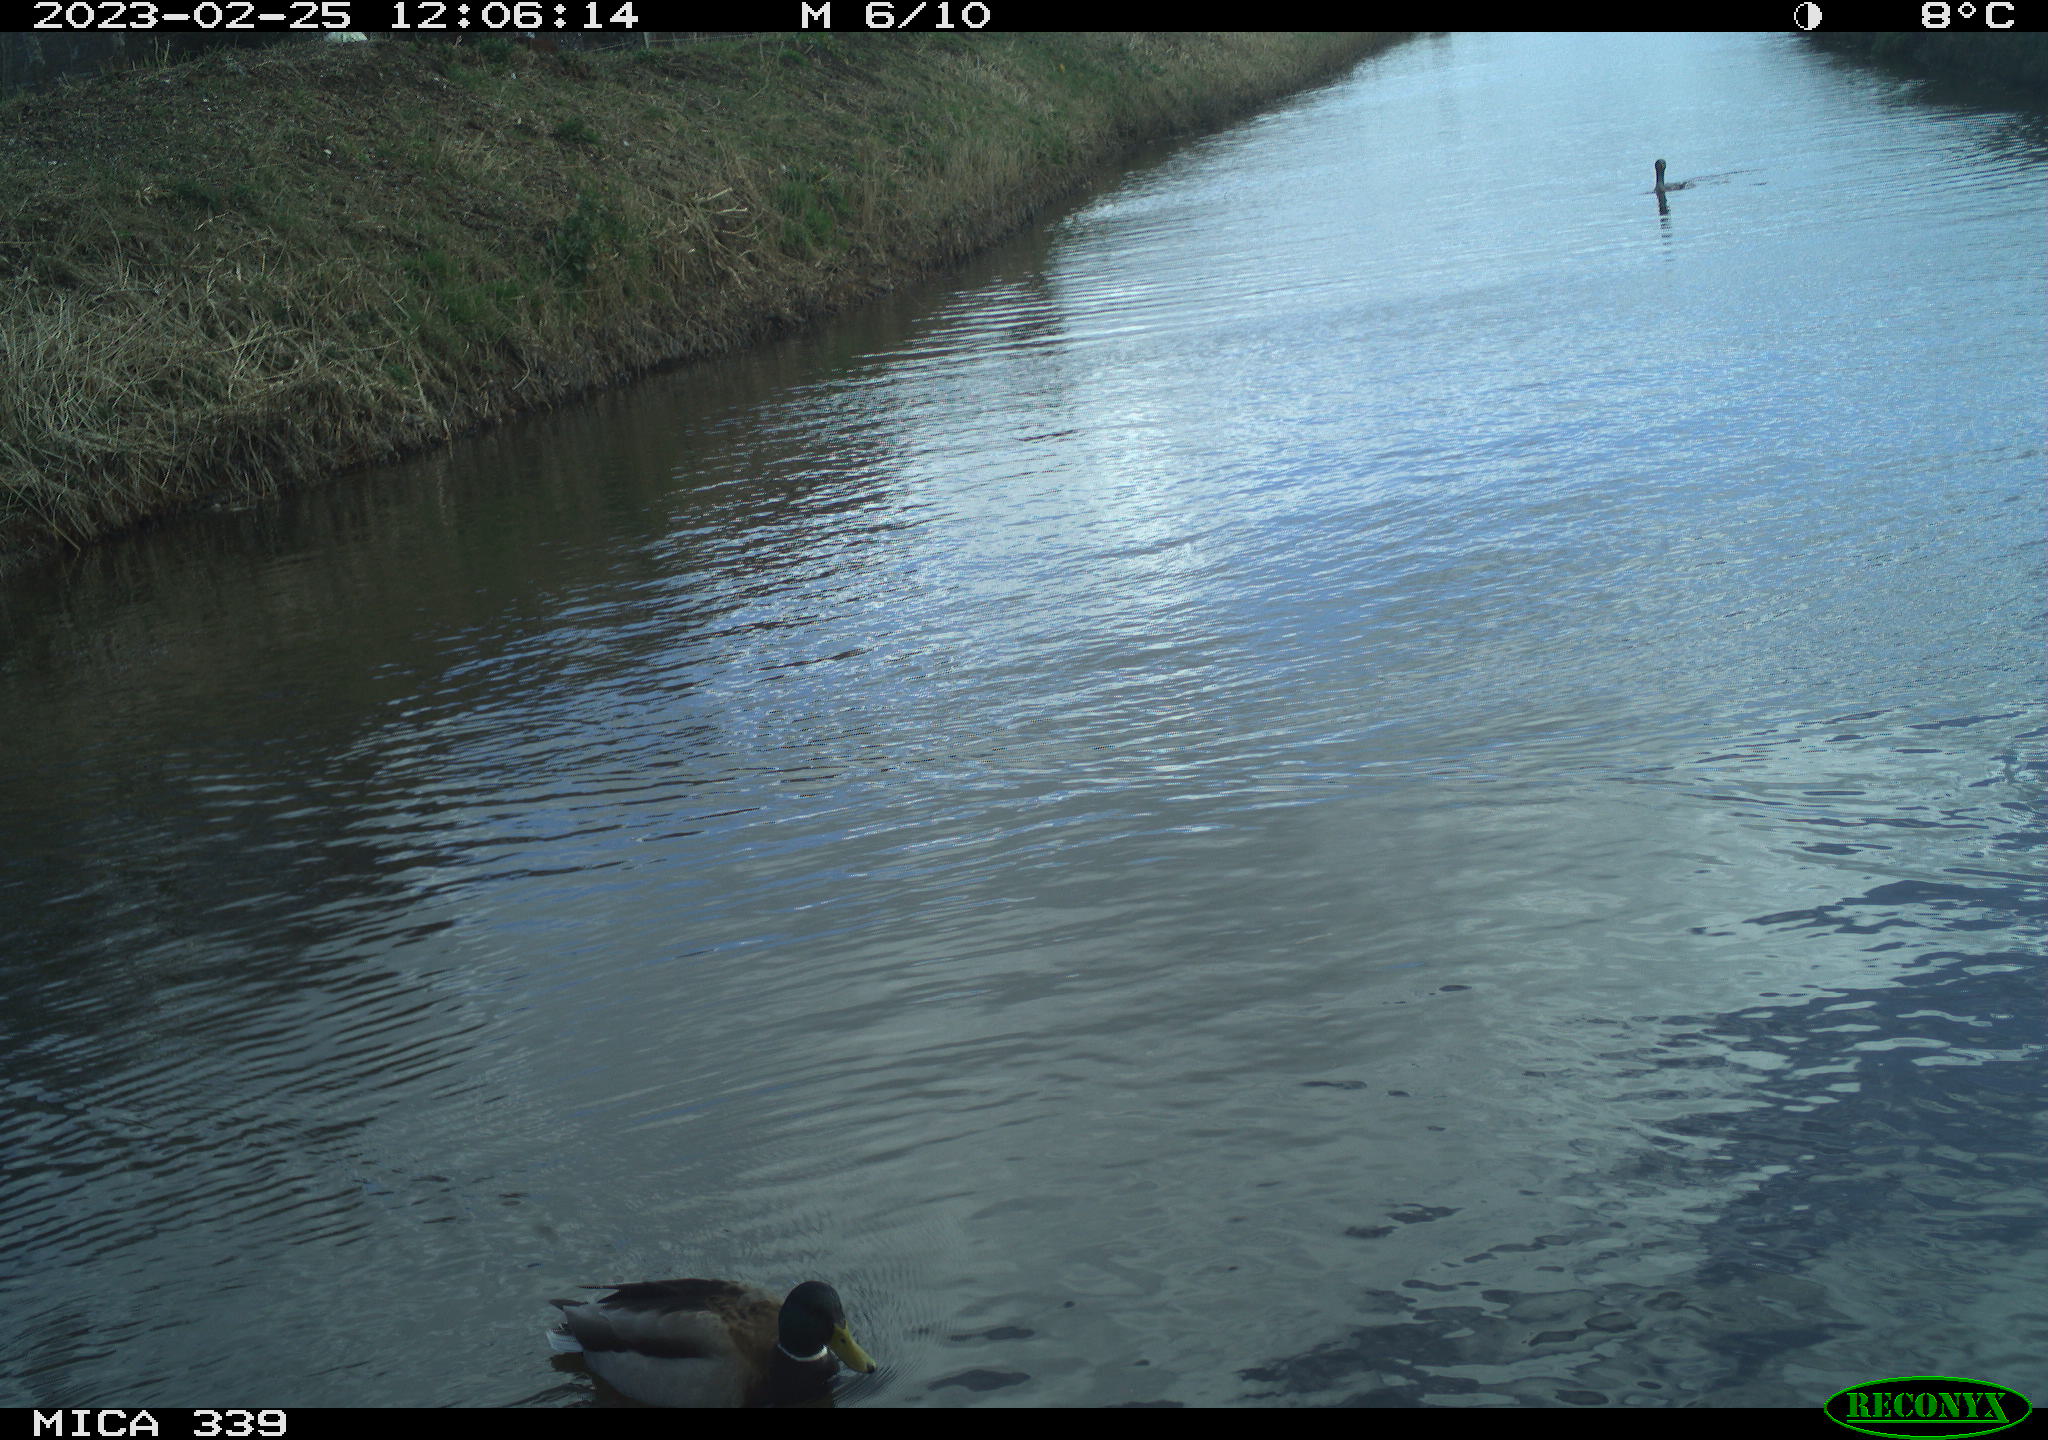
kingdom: Animalia
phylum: Chordata
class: Aves
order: Anseriformes
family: Anatidae
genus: Anas
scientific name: Anas
